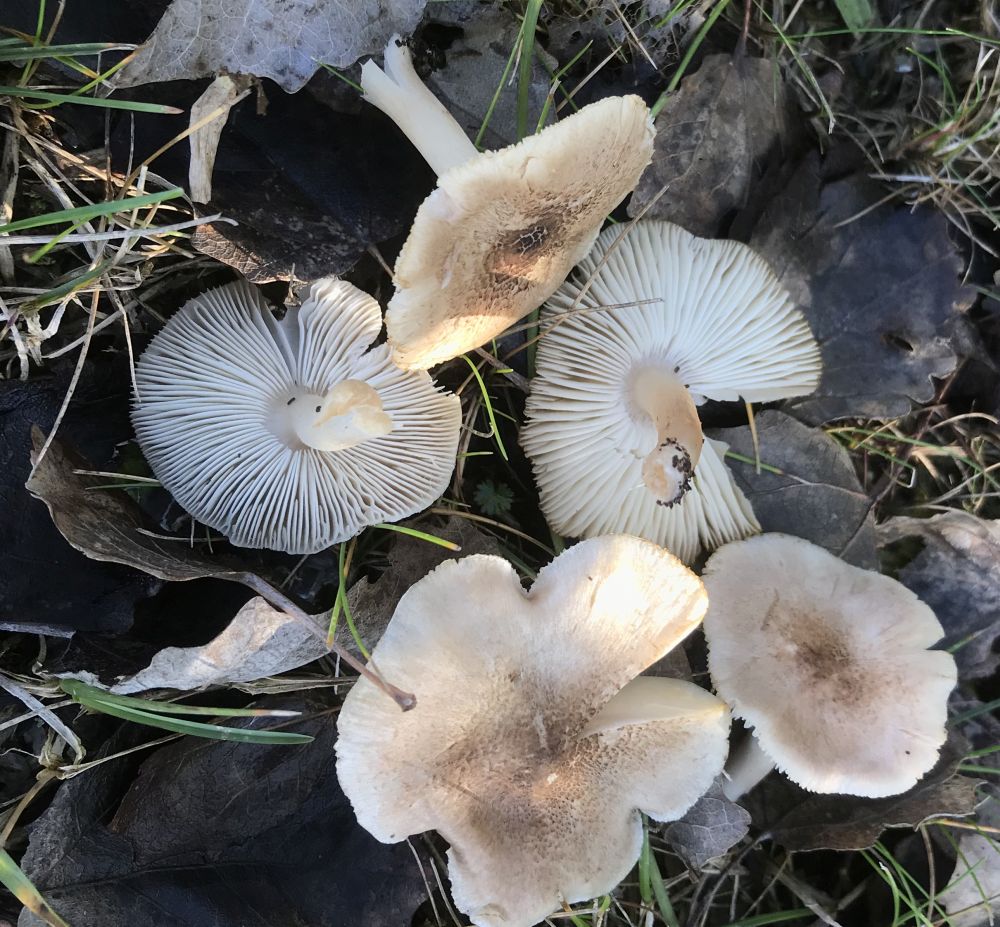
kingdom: Fungi
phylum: Basidiomycota
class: Agaricomycetes
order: Agaricales
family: Tricholomataceae
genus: Tricholoma
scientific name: Tricholoma argyraceum
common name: slør-ridderhat
